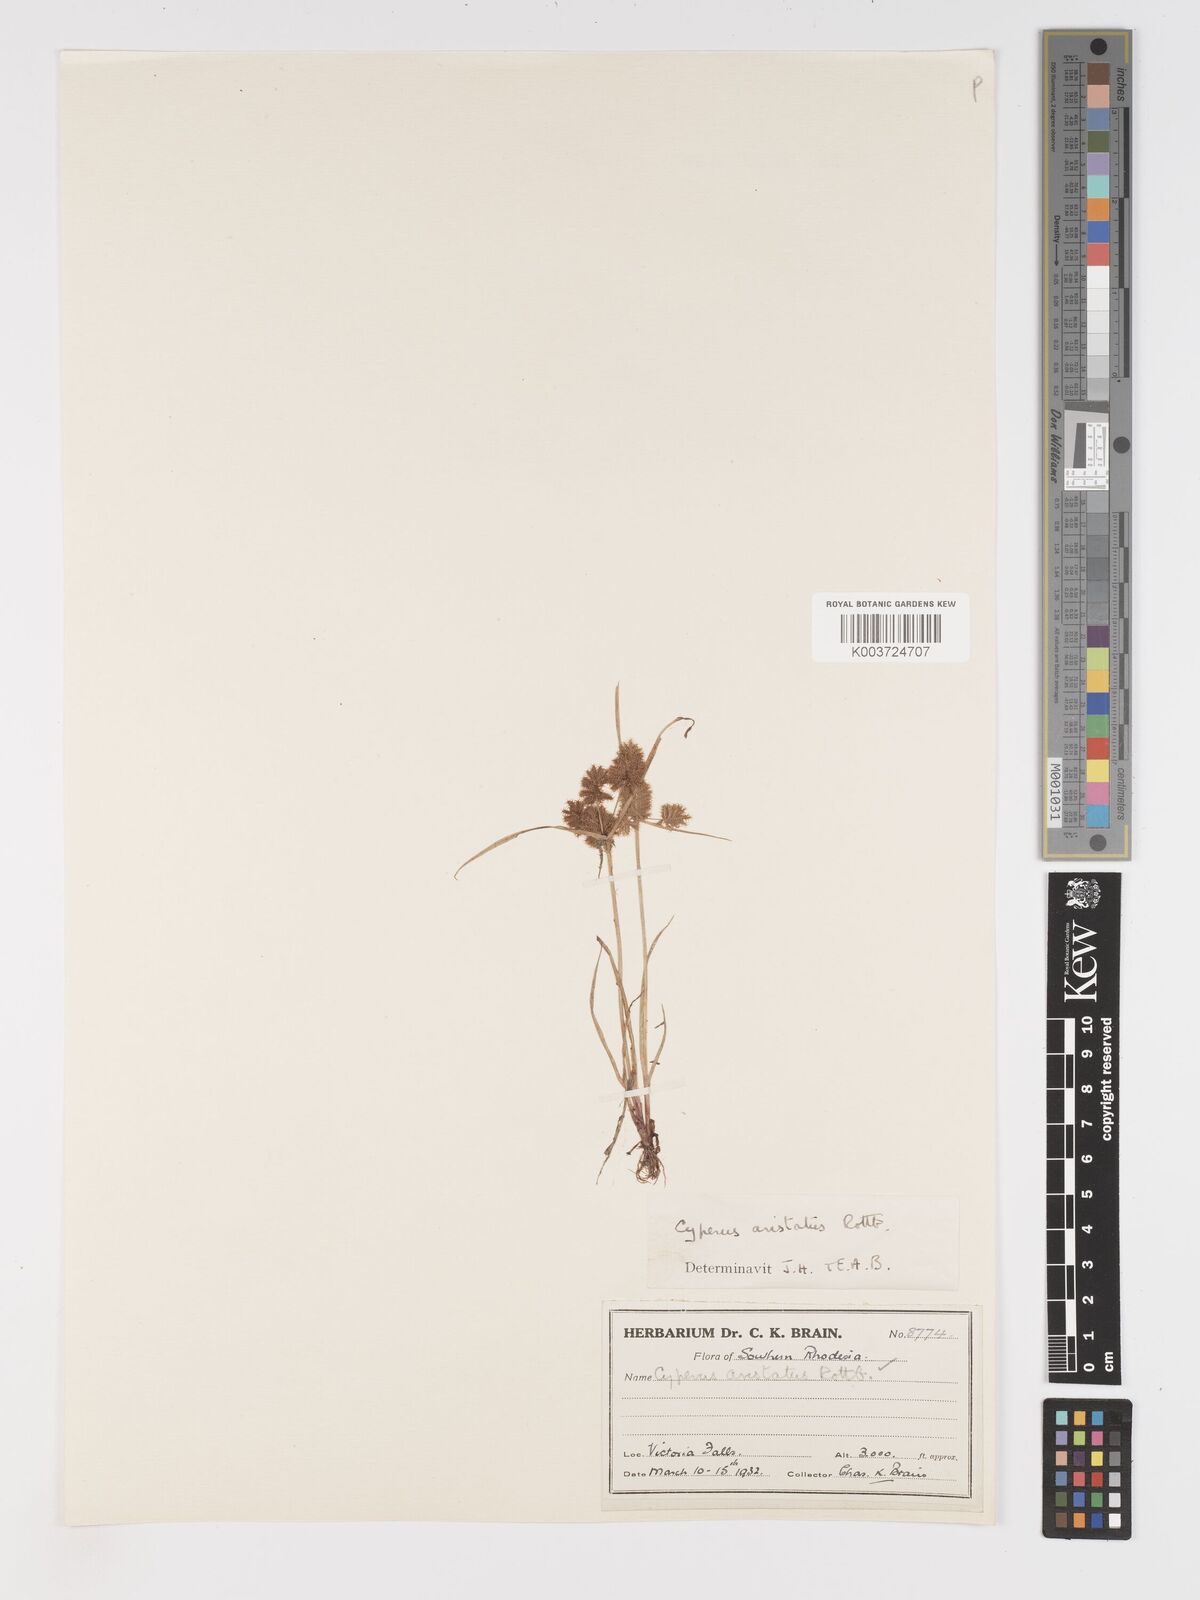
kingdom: Plantae
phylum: Tracheophyta
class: Liliopsida
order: Poales
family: Cyperaceae
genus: Cyperus
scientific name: Cyperus squarrosus
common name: Awned cyperus
